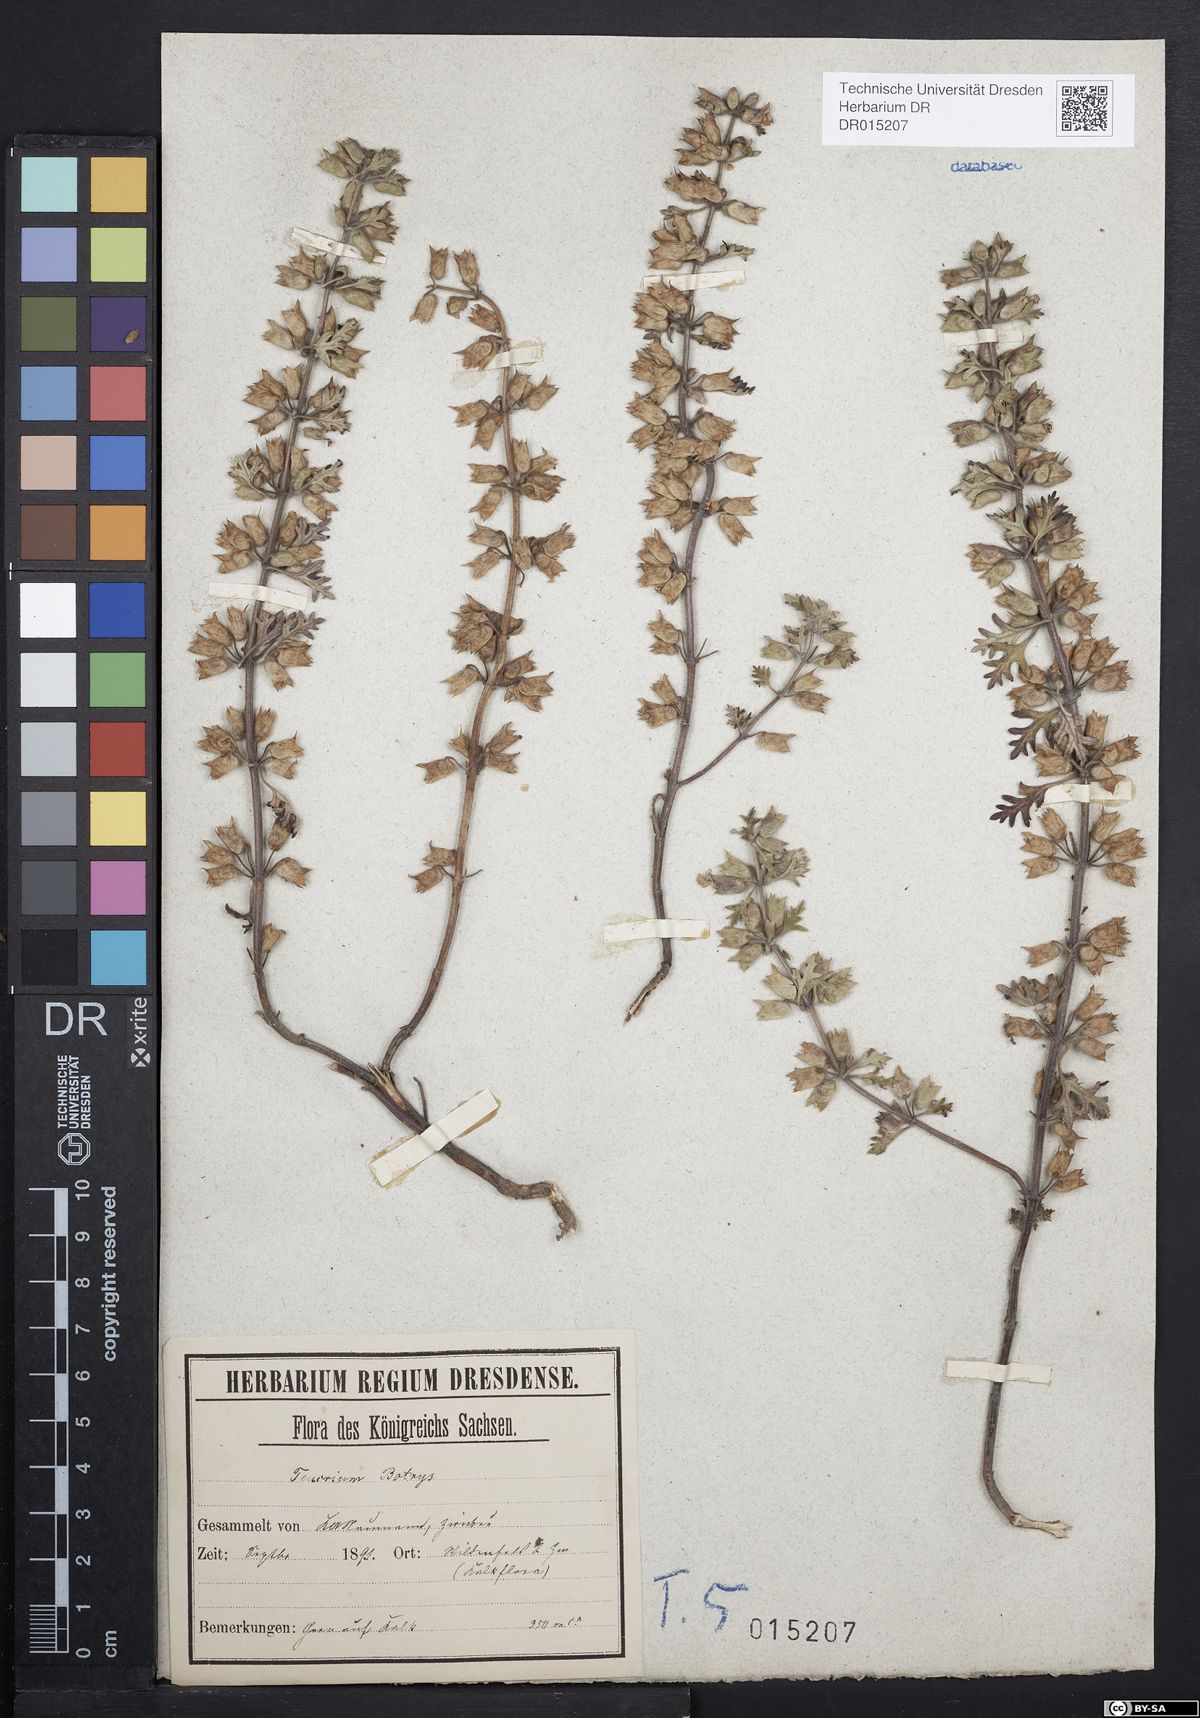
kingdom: Plantae
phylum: Tracheophyta
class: Magnoliopsida
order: Lamiales
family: Lamiaceae
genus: Teucrium
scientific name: Teucrium botrys
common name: Cut-leaved germander
